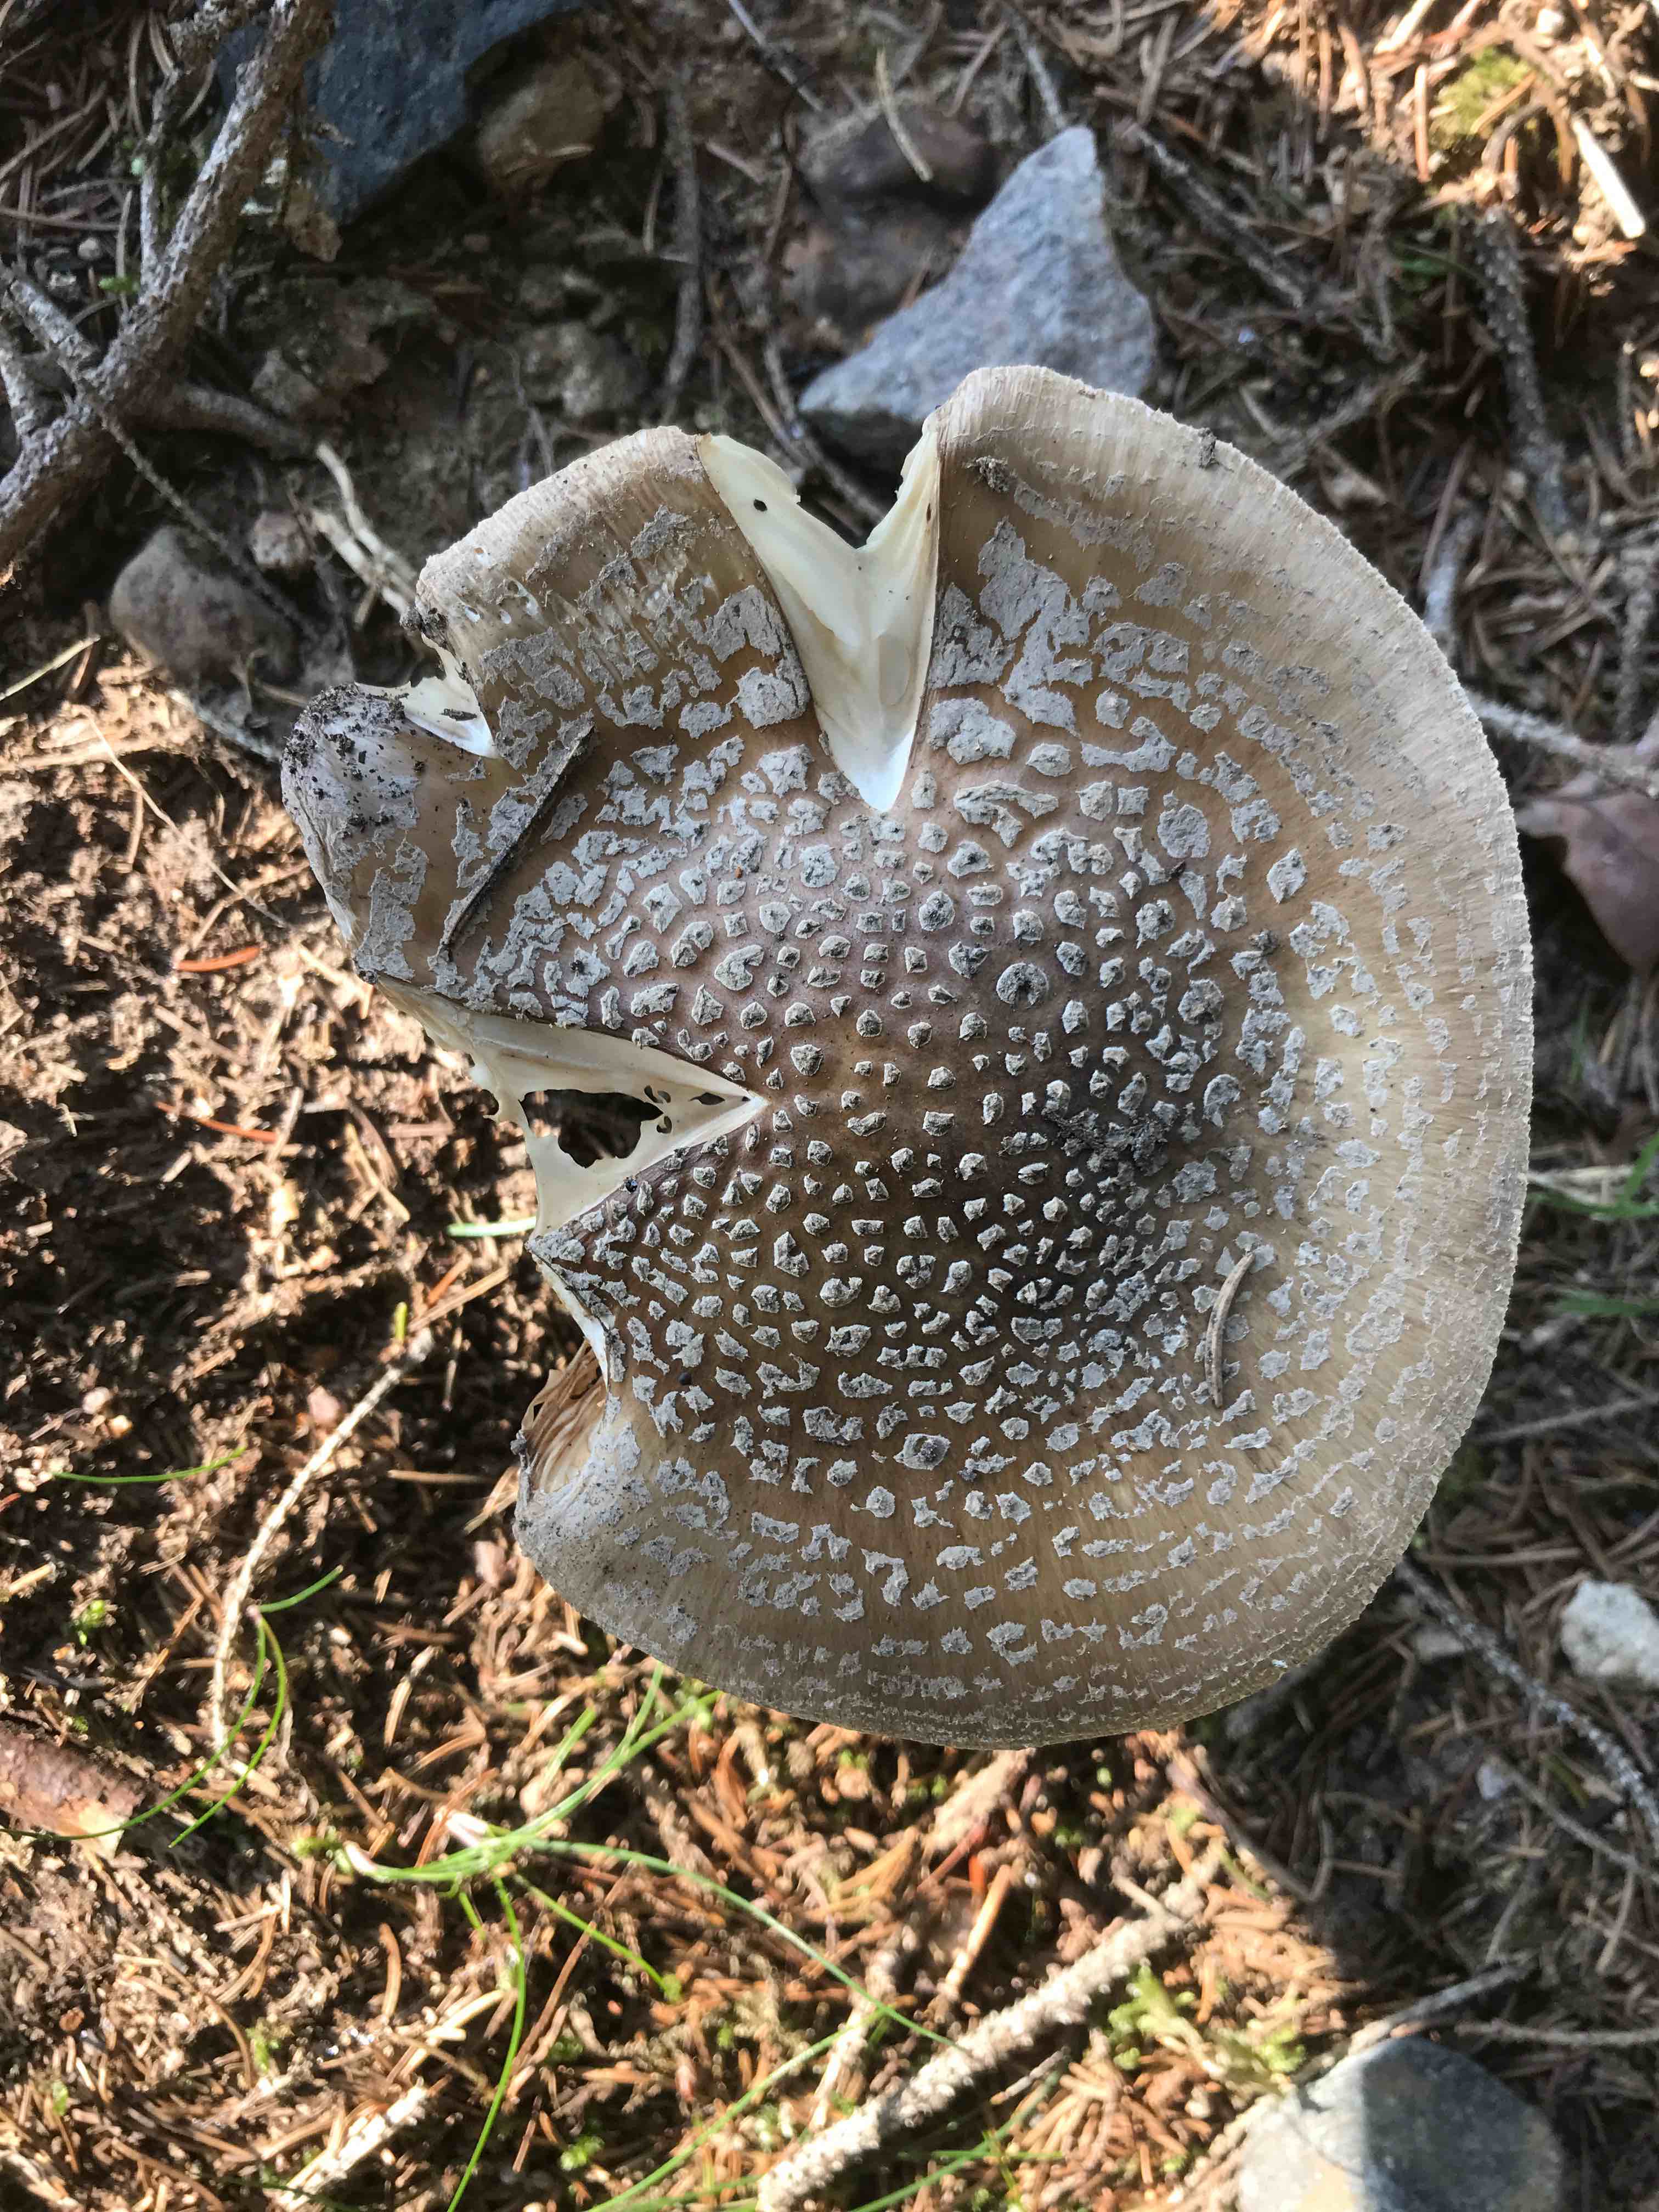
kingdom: Fungi
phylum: Basidiomycota
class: Agaricomycetes
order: Agaricales
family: Amanitaceae
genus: Amanita
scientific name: Amanita pantherina
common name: panter-fluesvamp
